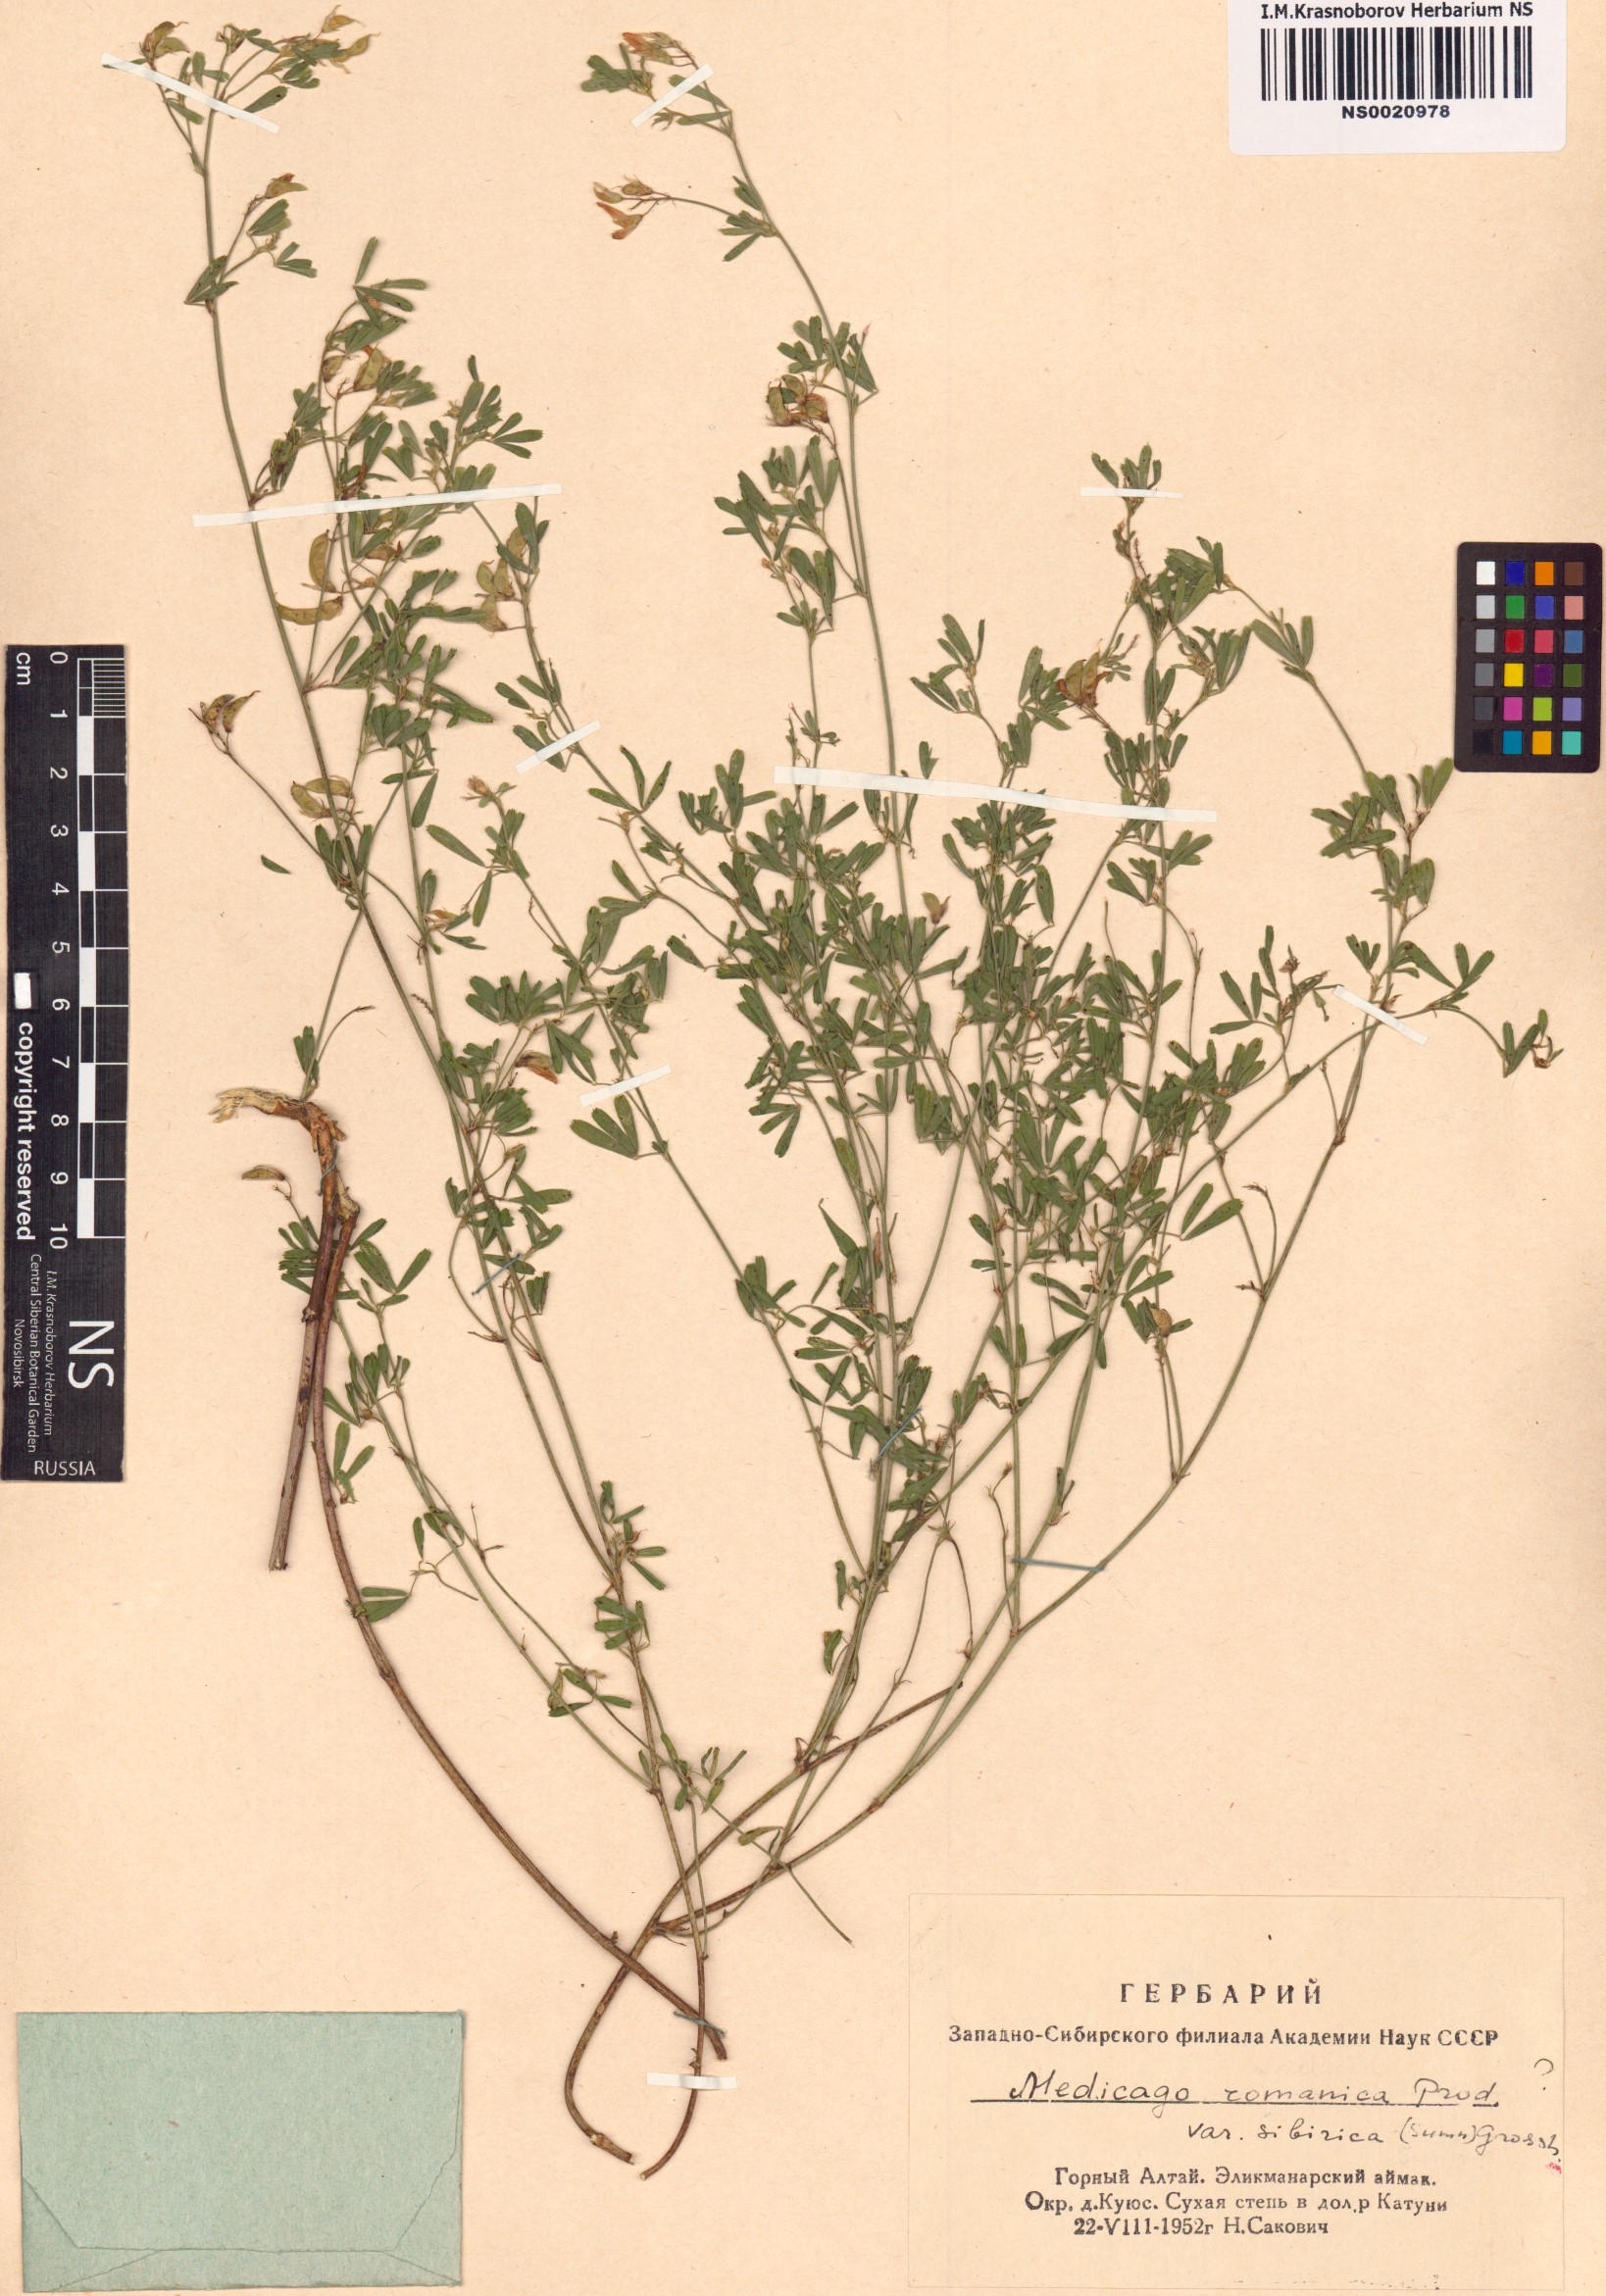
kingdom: Plantae
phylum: Tracheophyta
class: Magnoliopsida
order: Fabales
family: Fabaceae
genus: Medicago
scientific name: Medicago falcata
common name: Sickle medick
